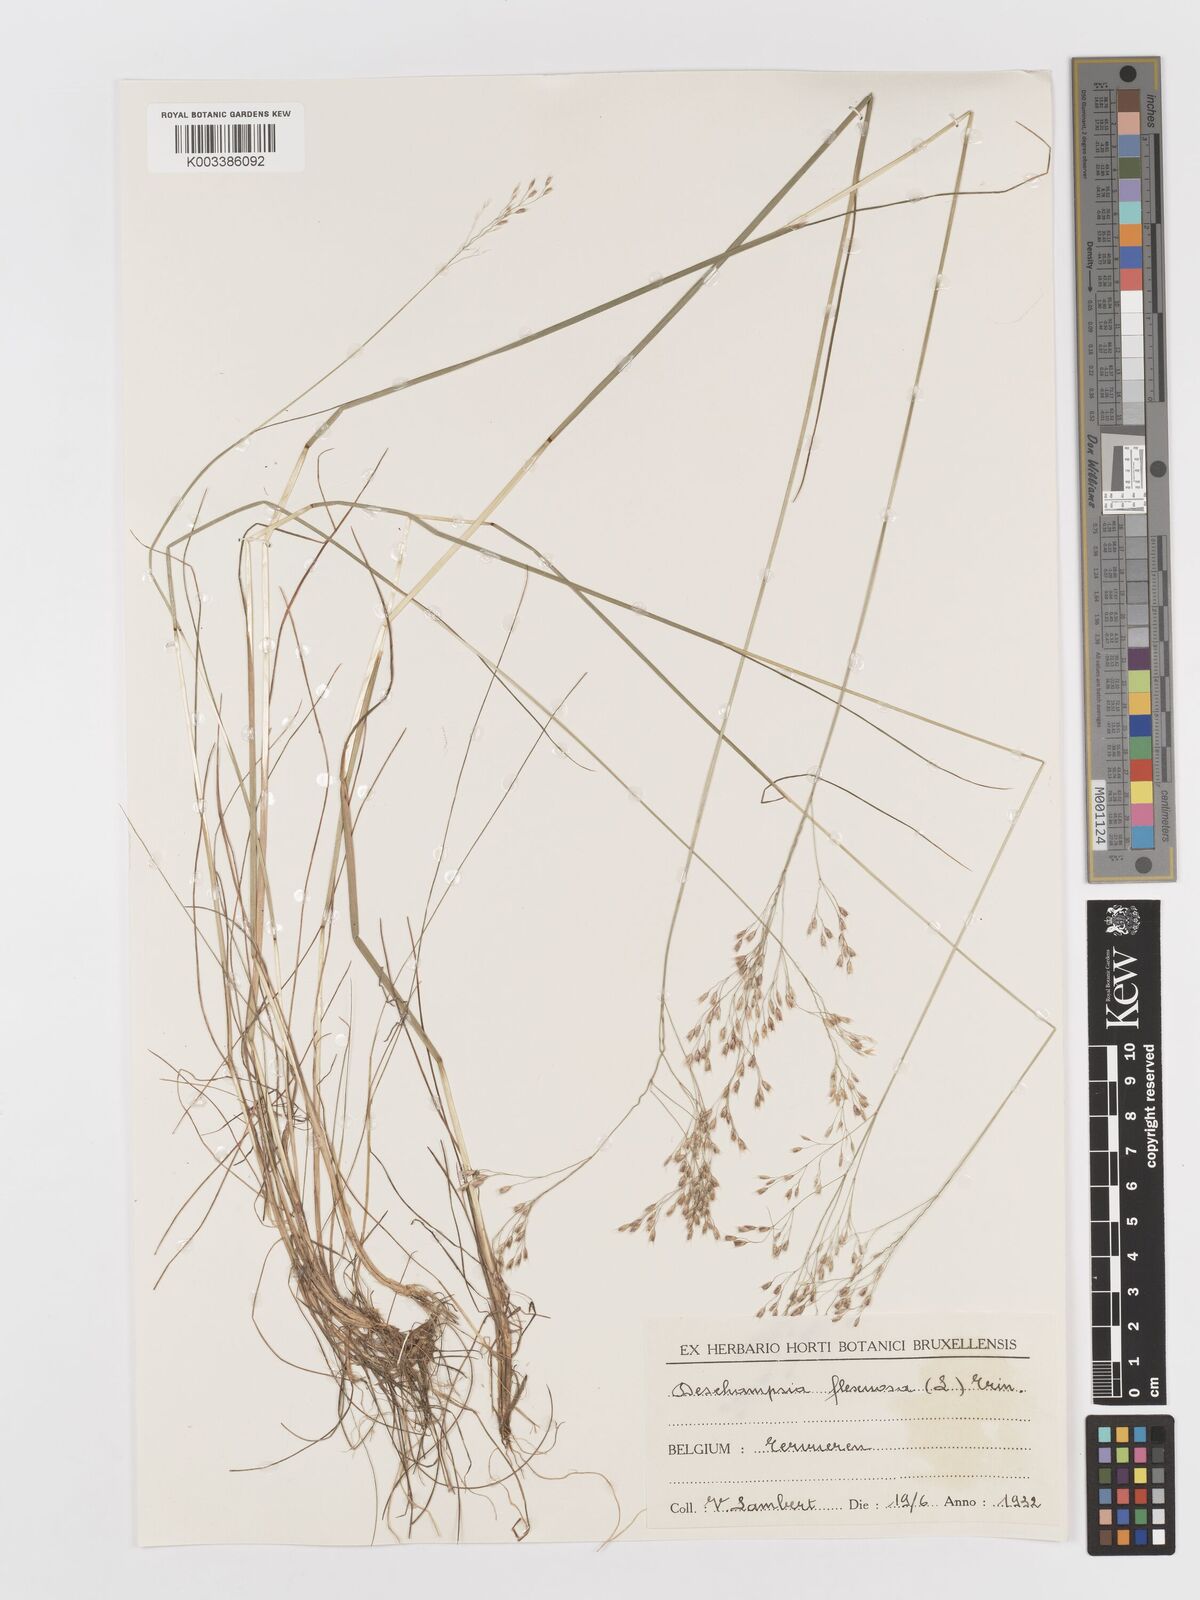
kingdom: Plantae
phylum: Tracheophyta
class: Liliopsida
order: Poales
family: Poaceae
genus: Avenella
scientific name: Avenella flexuosa
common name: Wavy hairgrass
